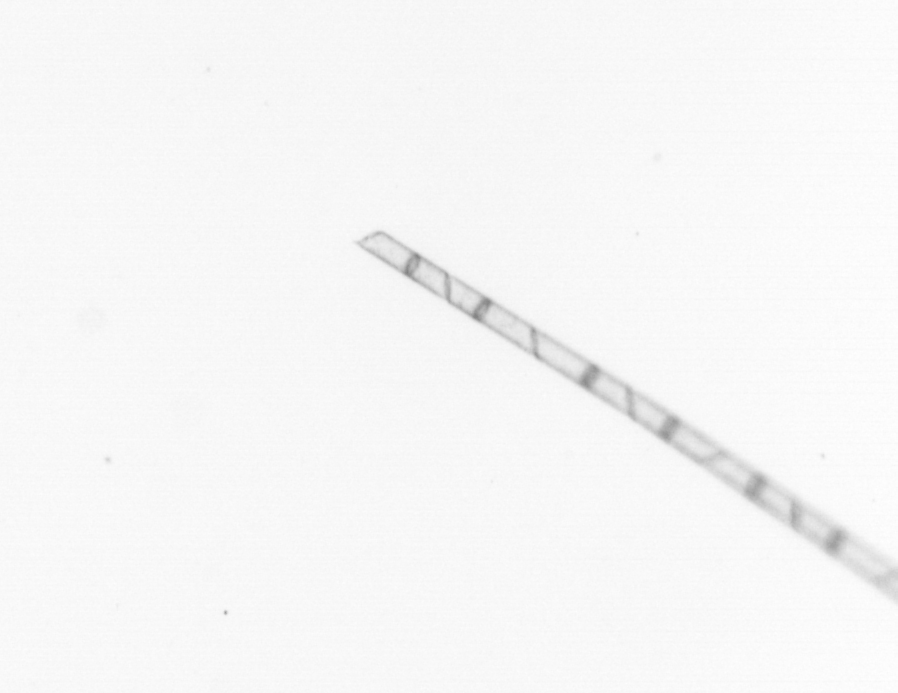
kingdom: Chromista
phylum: Ochrophyta
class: Bacillariophyceae
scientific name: Bacillariophyceae
